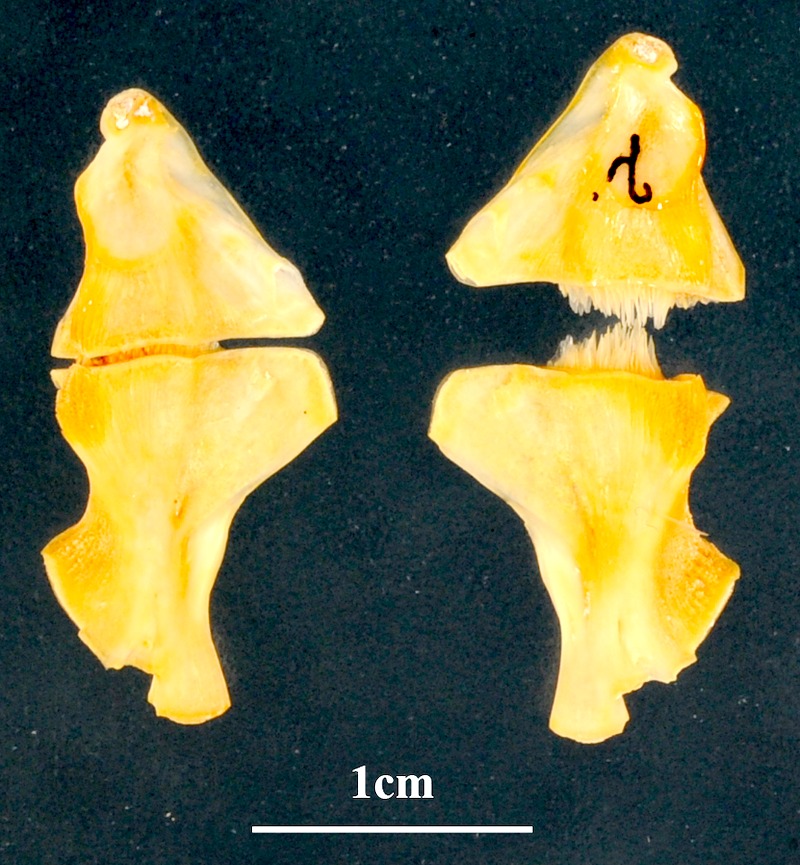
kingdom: Animalia
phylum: Chordata
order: Perciformes
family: Sparidae
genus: Pagrus
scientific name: Pagrus caeruleostictus
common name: Bluespotted seabream
